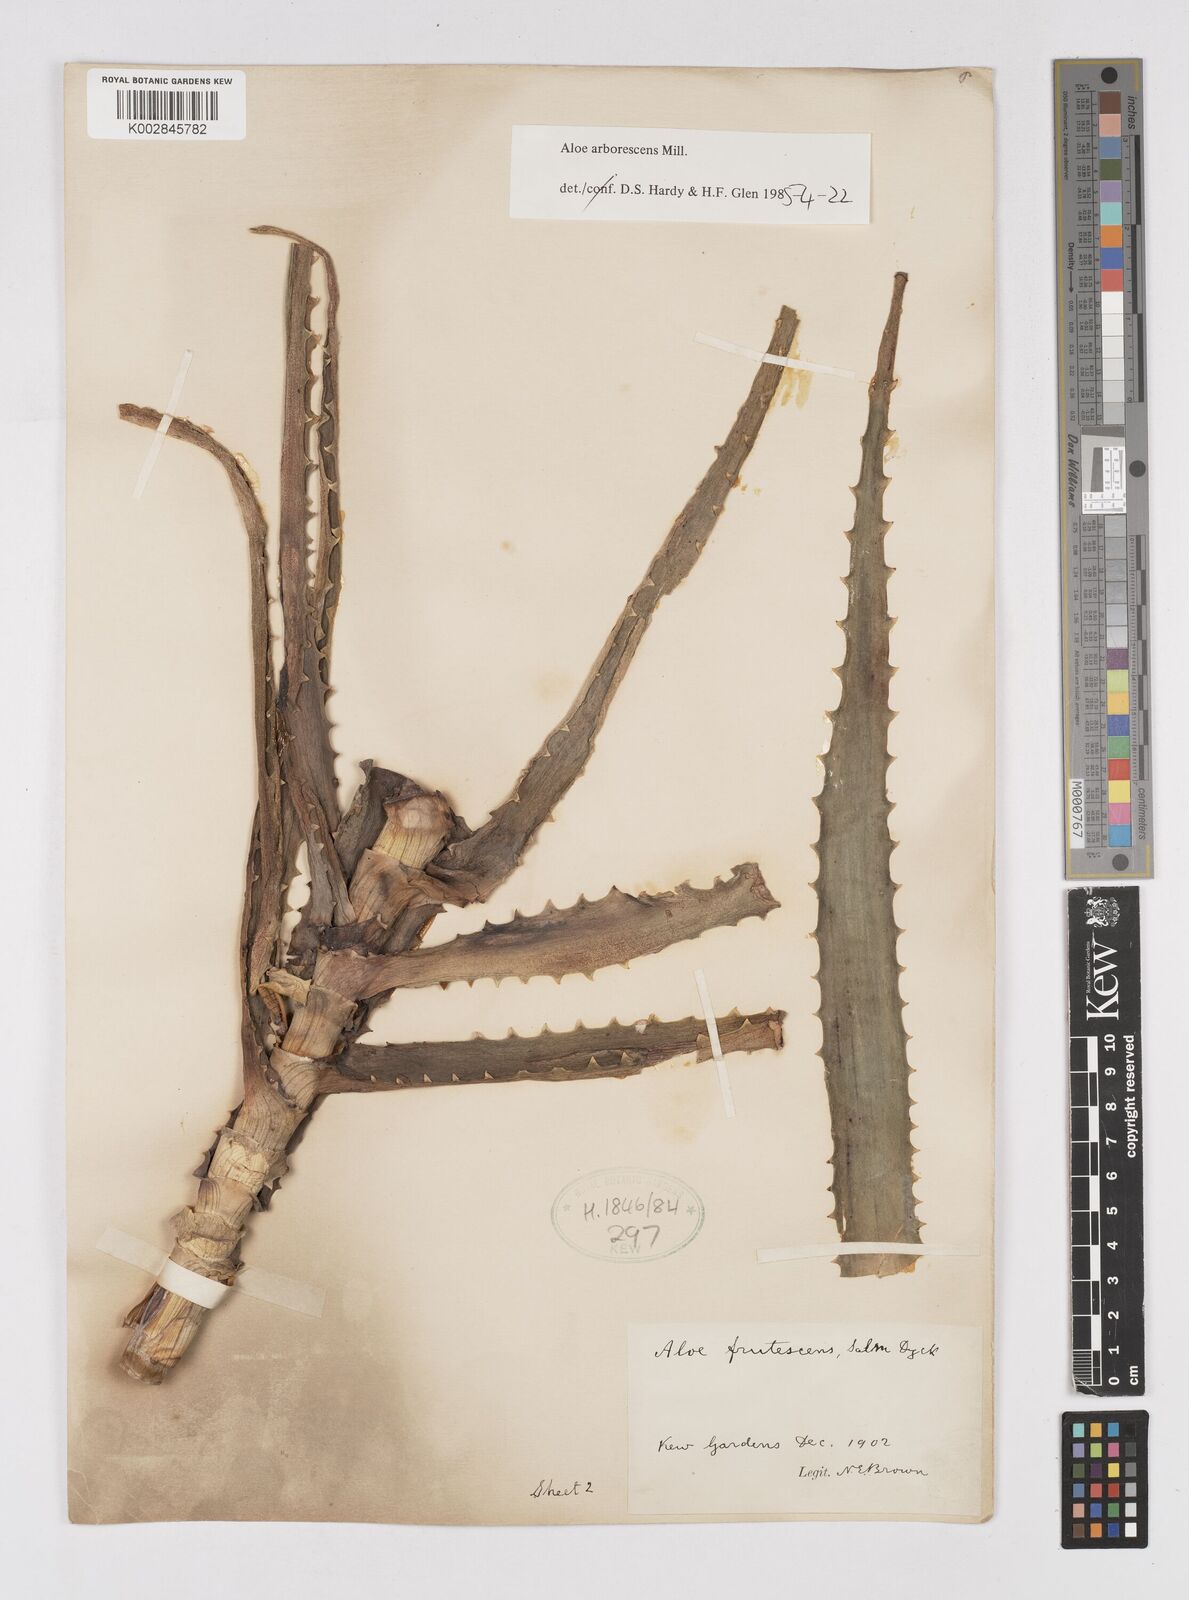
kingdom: Plantae
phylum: Tracheophyta
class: Liliopsida
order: Asparagales
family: Asphodelaceae
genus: Aloe
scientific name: Aloe arborescens
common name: Candelabra aloe
